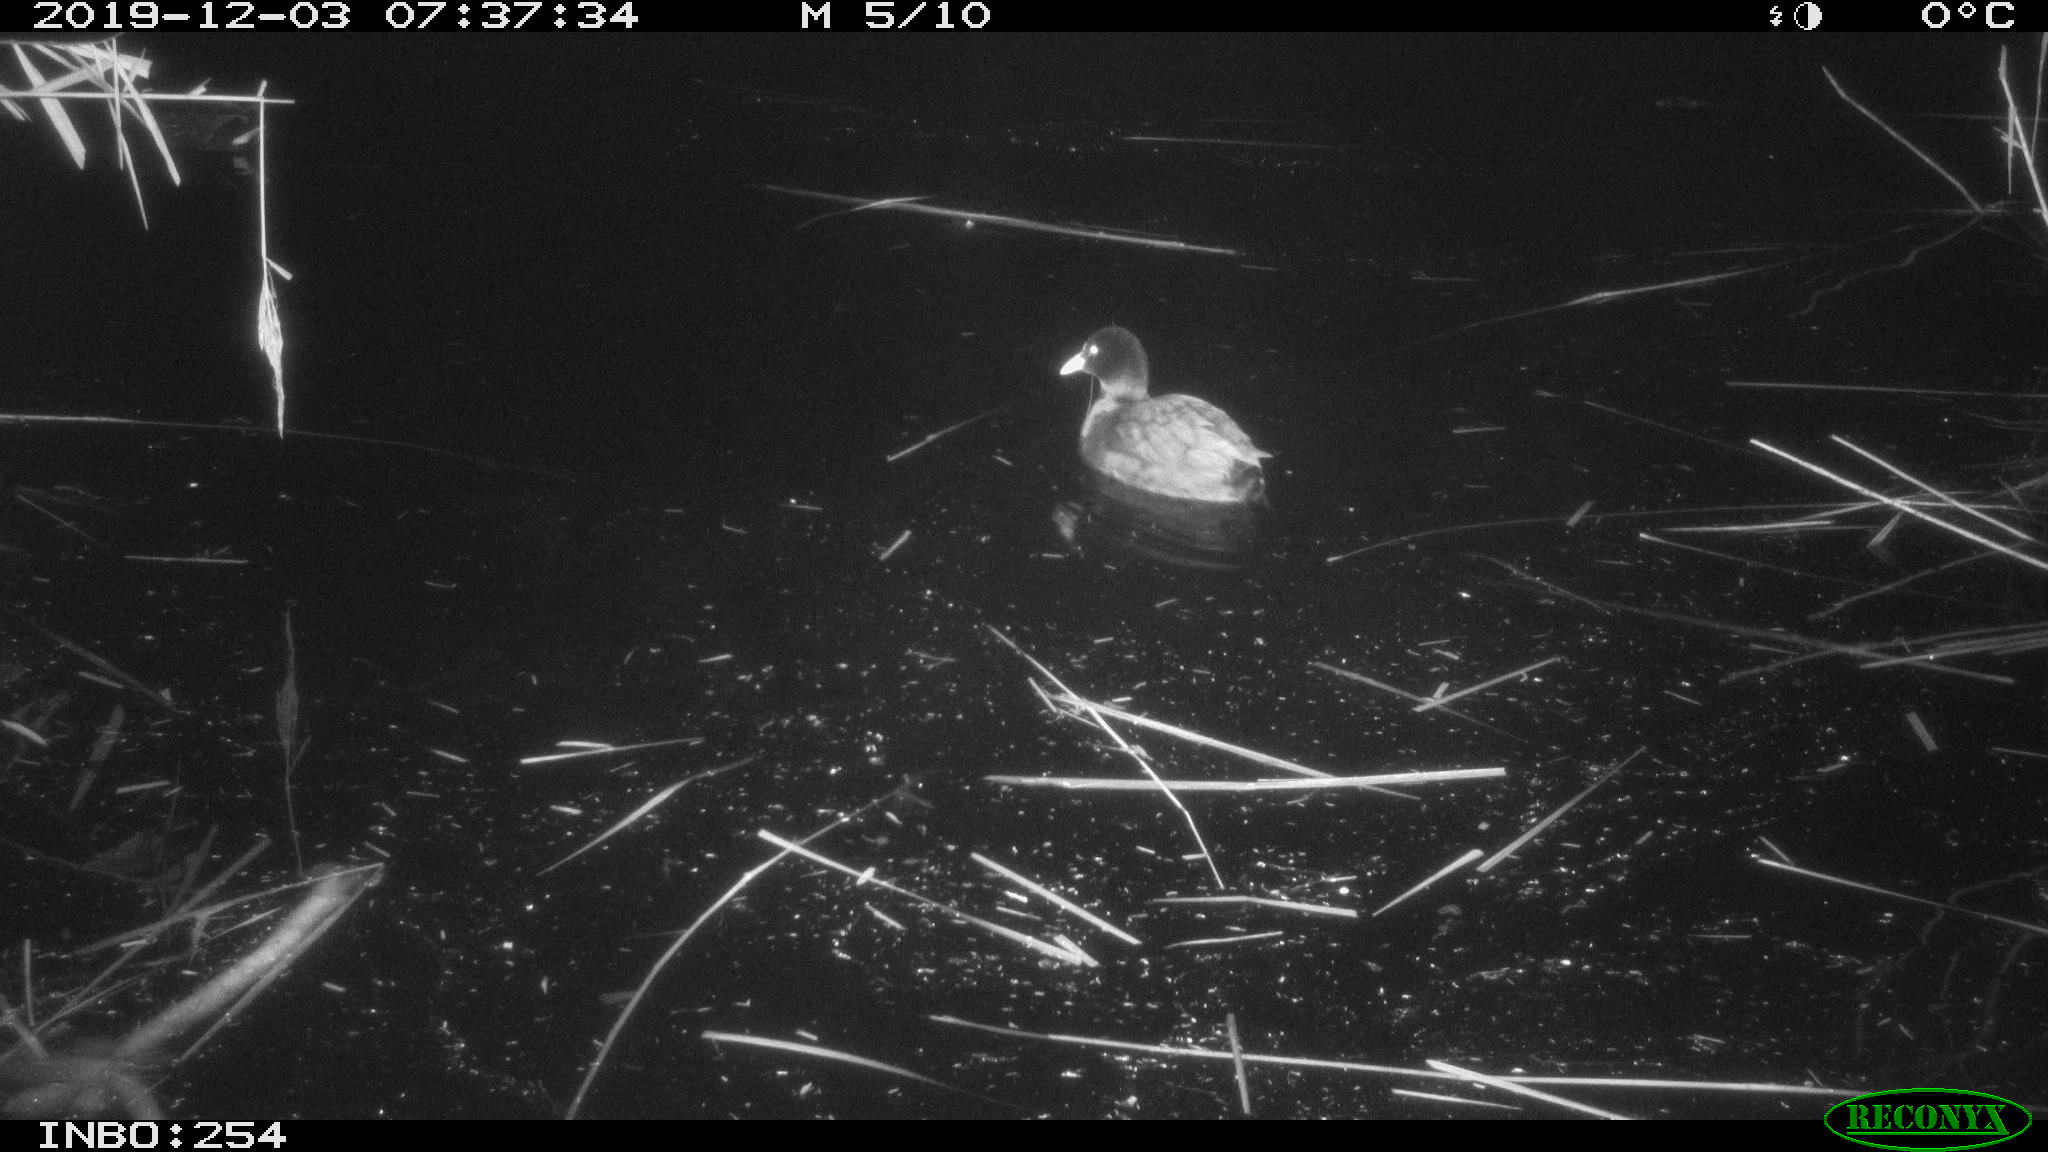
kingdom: Animalia
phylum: Chordata
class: Aves
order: Gruiformes
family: Rallidae
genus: Fulica
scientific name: Fulica atra
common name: Eurasian coot
